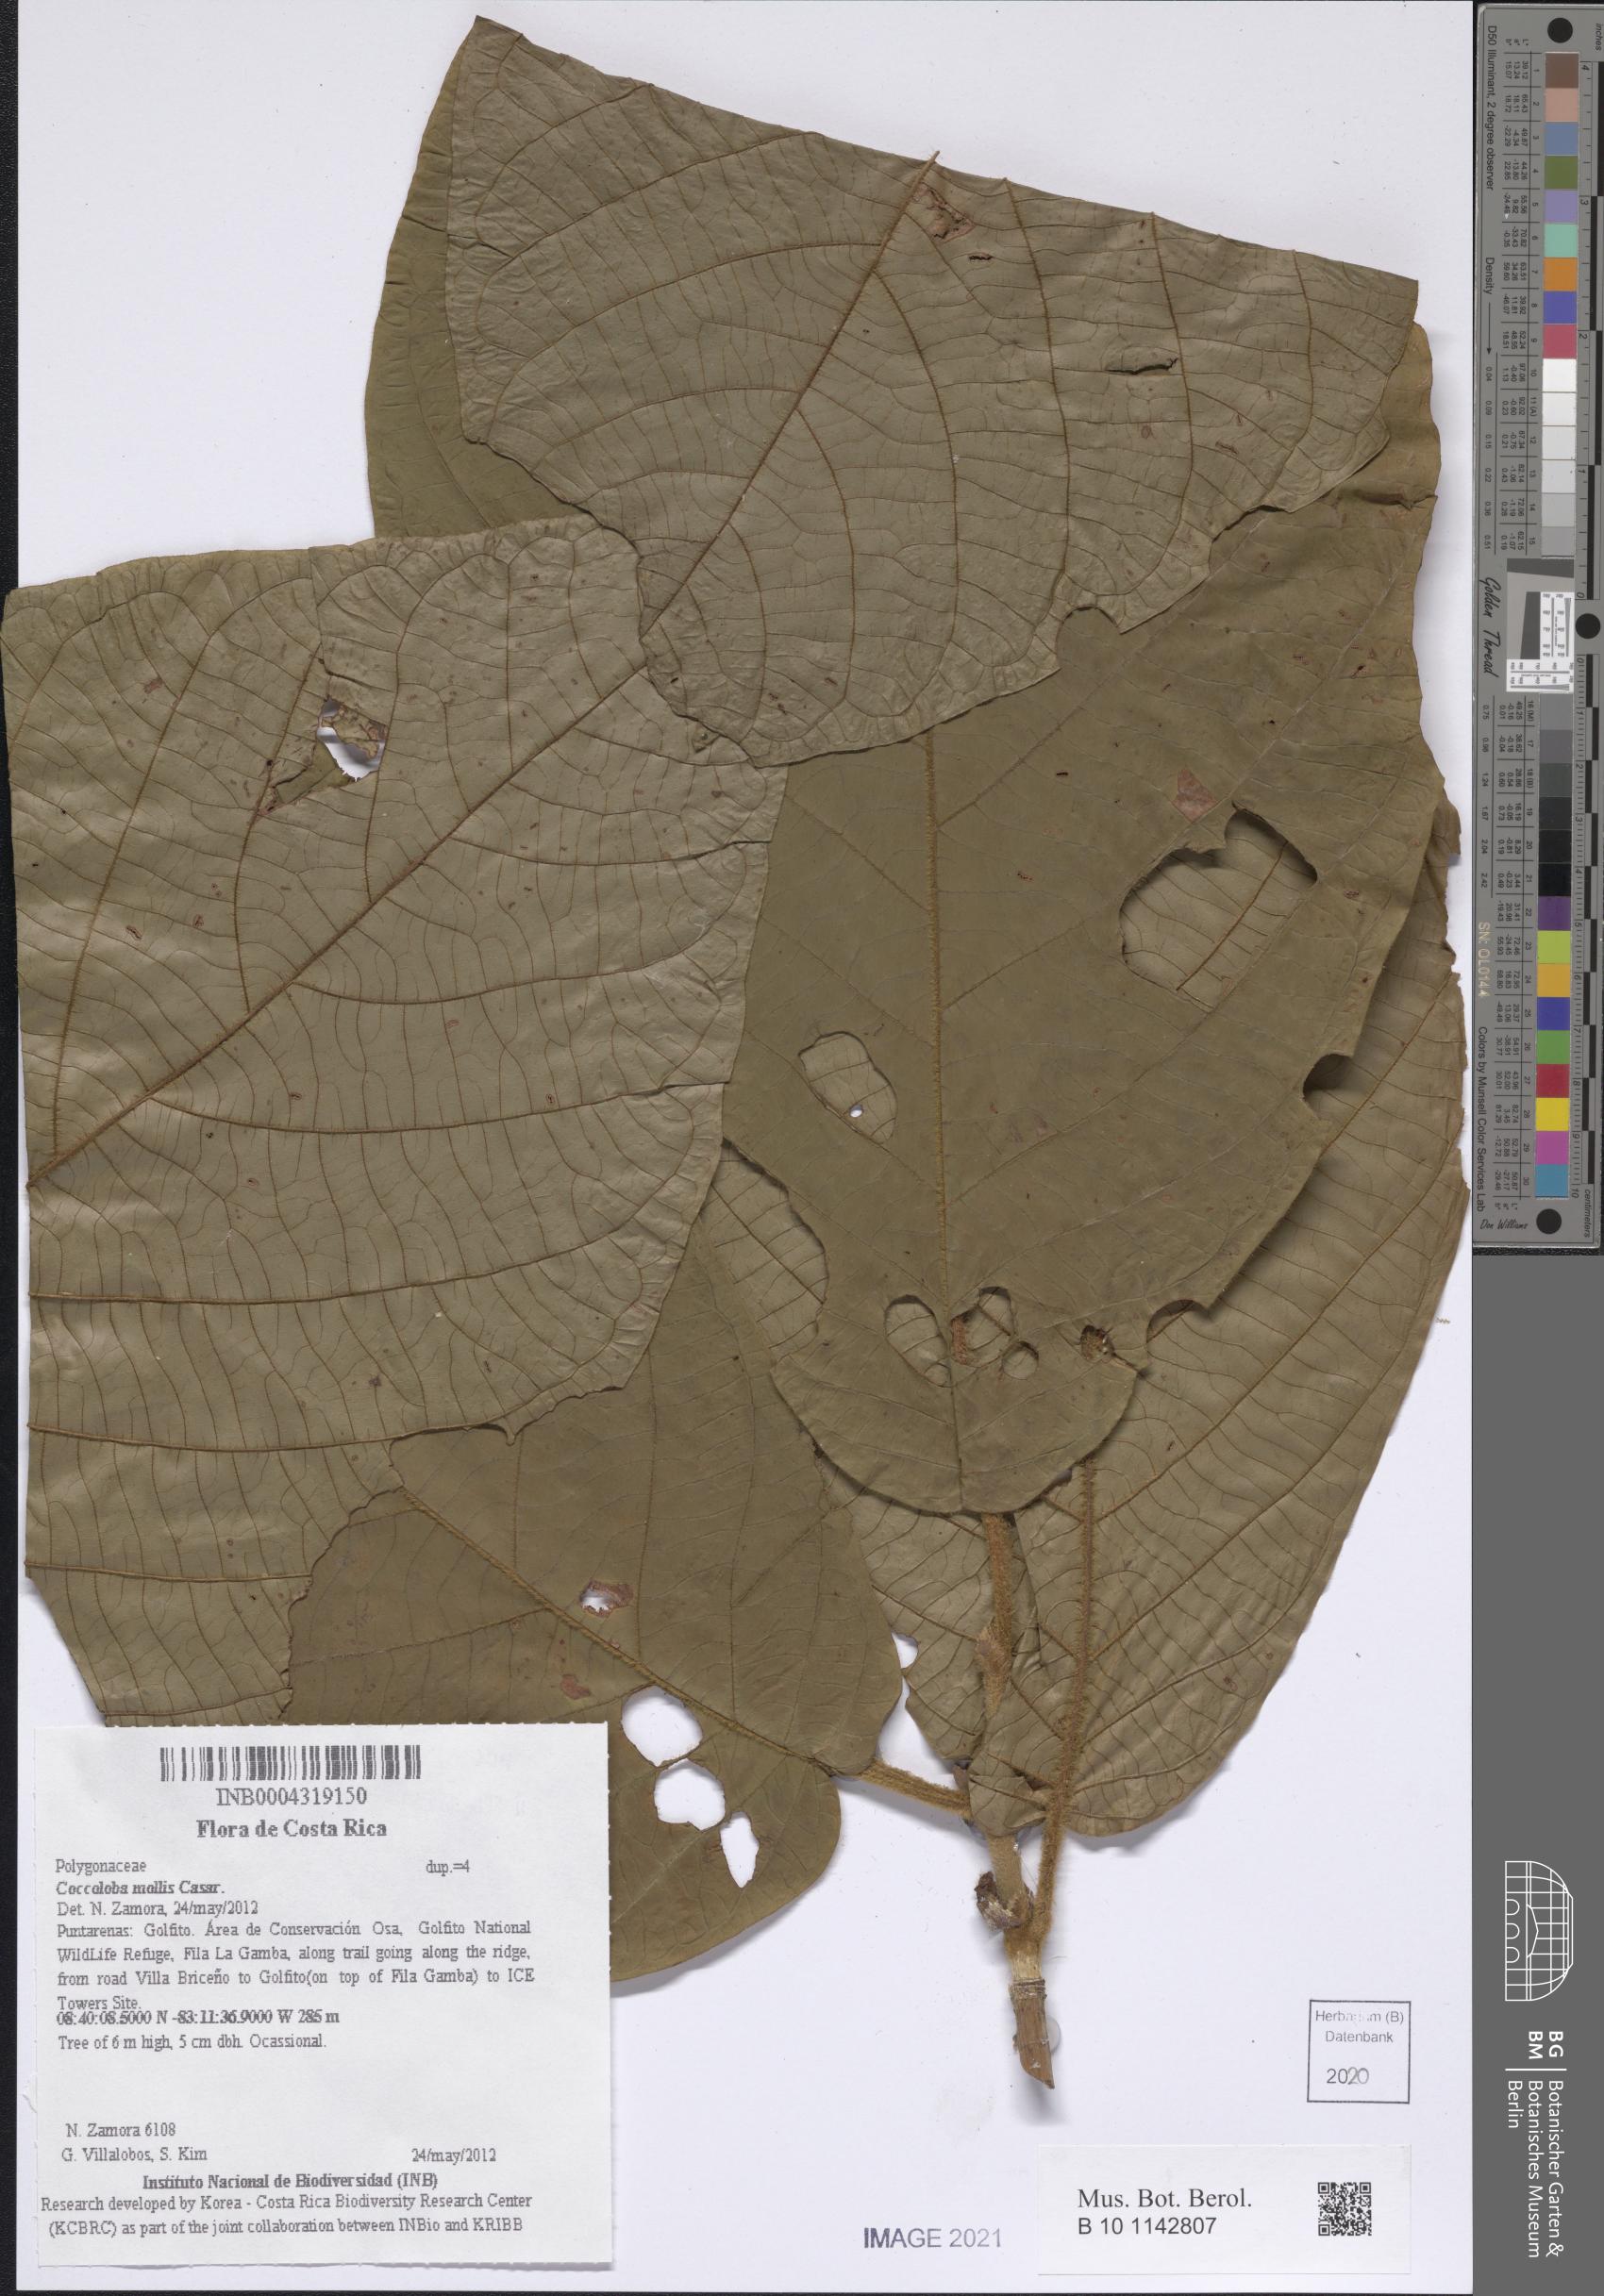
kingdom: Plantae
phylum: Tracheophyta
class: Magnoliopsida
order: Caryophyllales
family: Polygonaceae
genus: Coccoloba
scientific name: Coccoloba mollis
